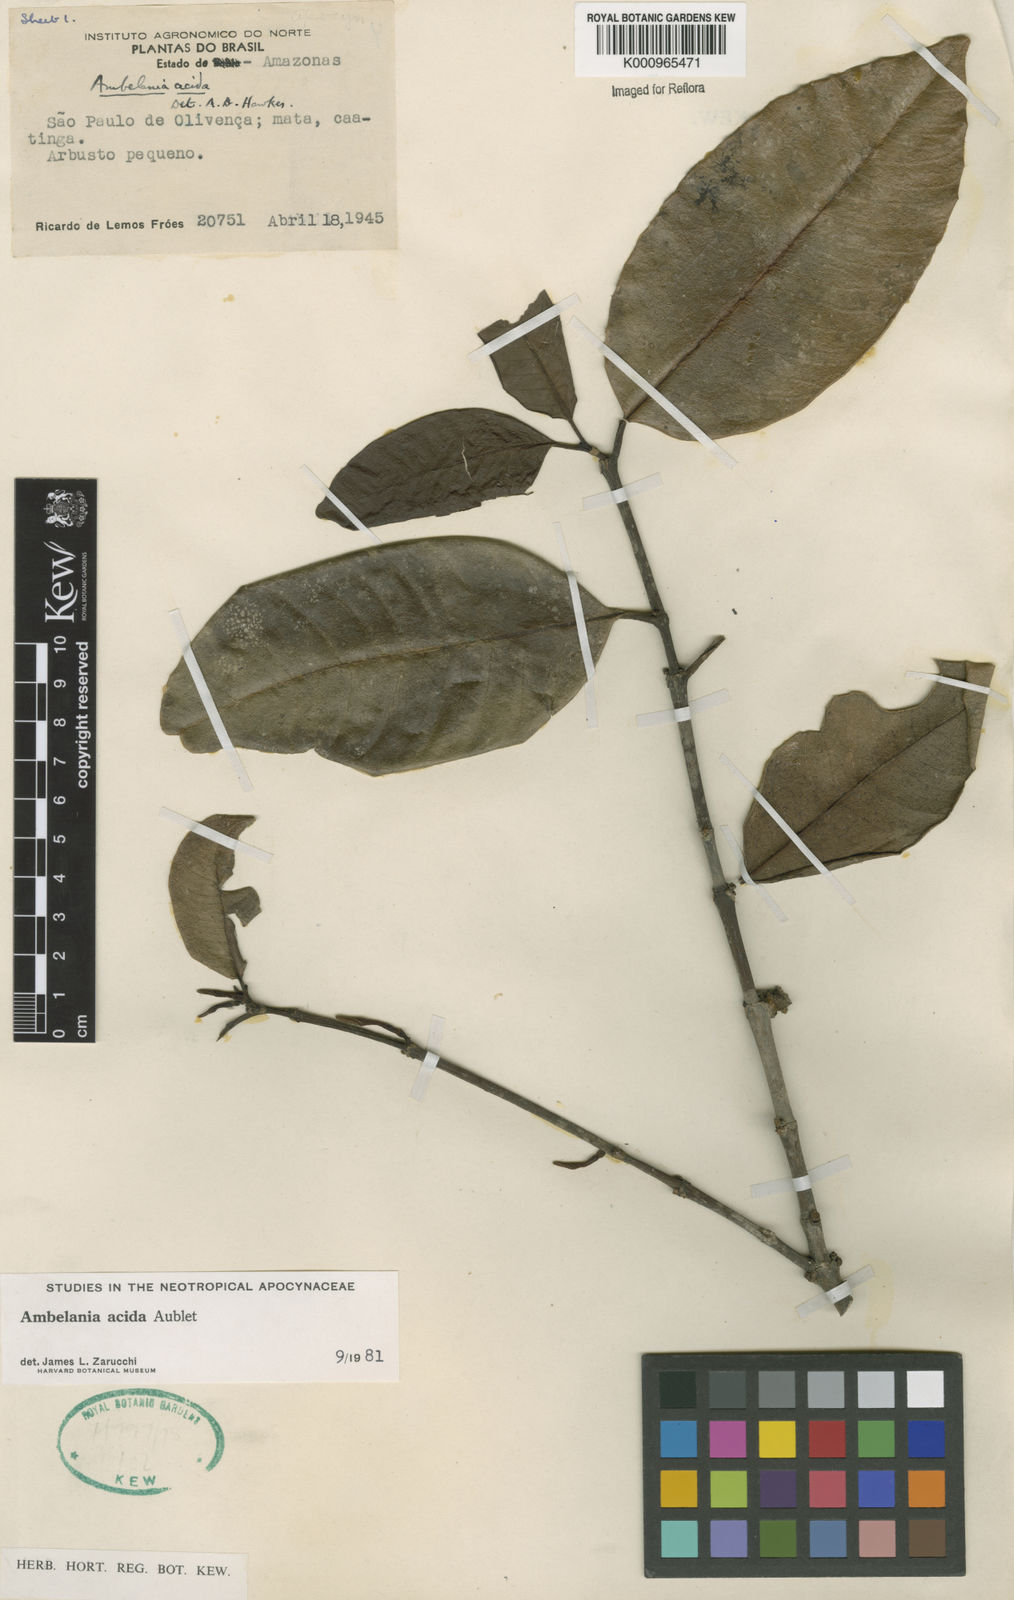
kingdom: Plantae
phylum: Tracheophyta
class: Magnoliopsida
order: Gentianales
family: Apocynaceae
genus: Ambelania
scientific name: Ambelania acida
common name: Bagasse
